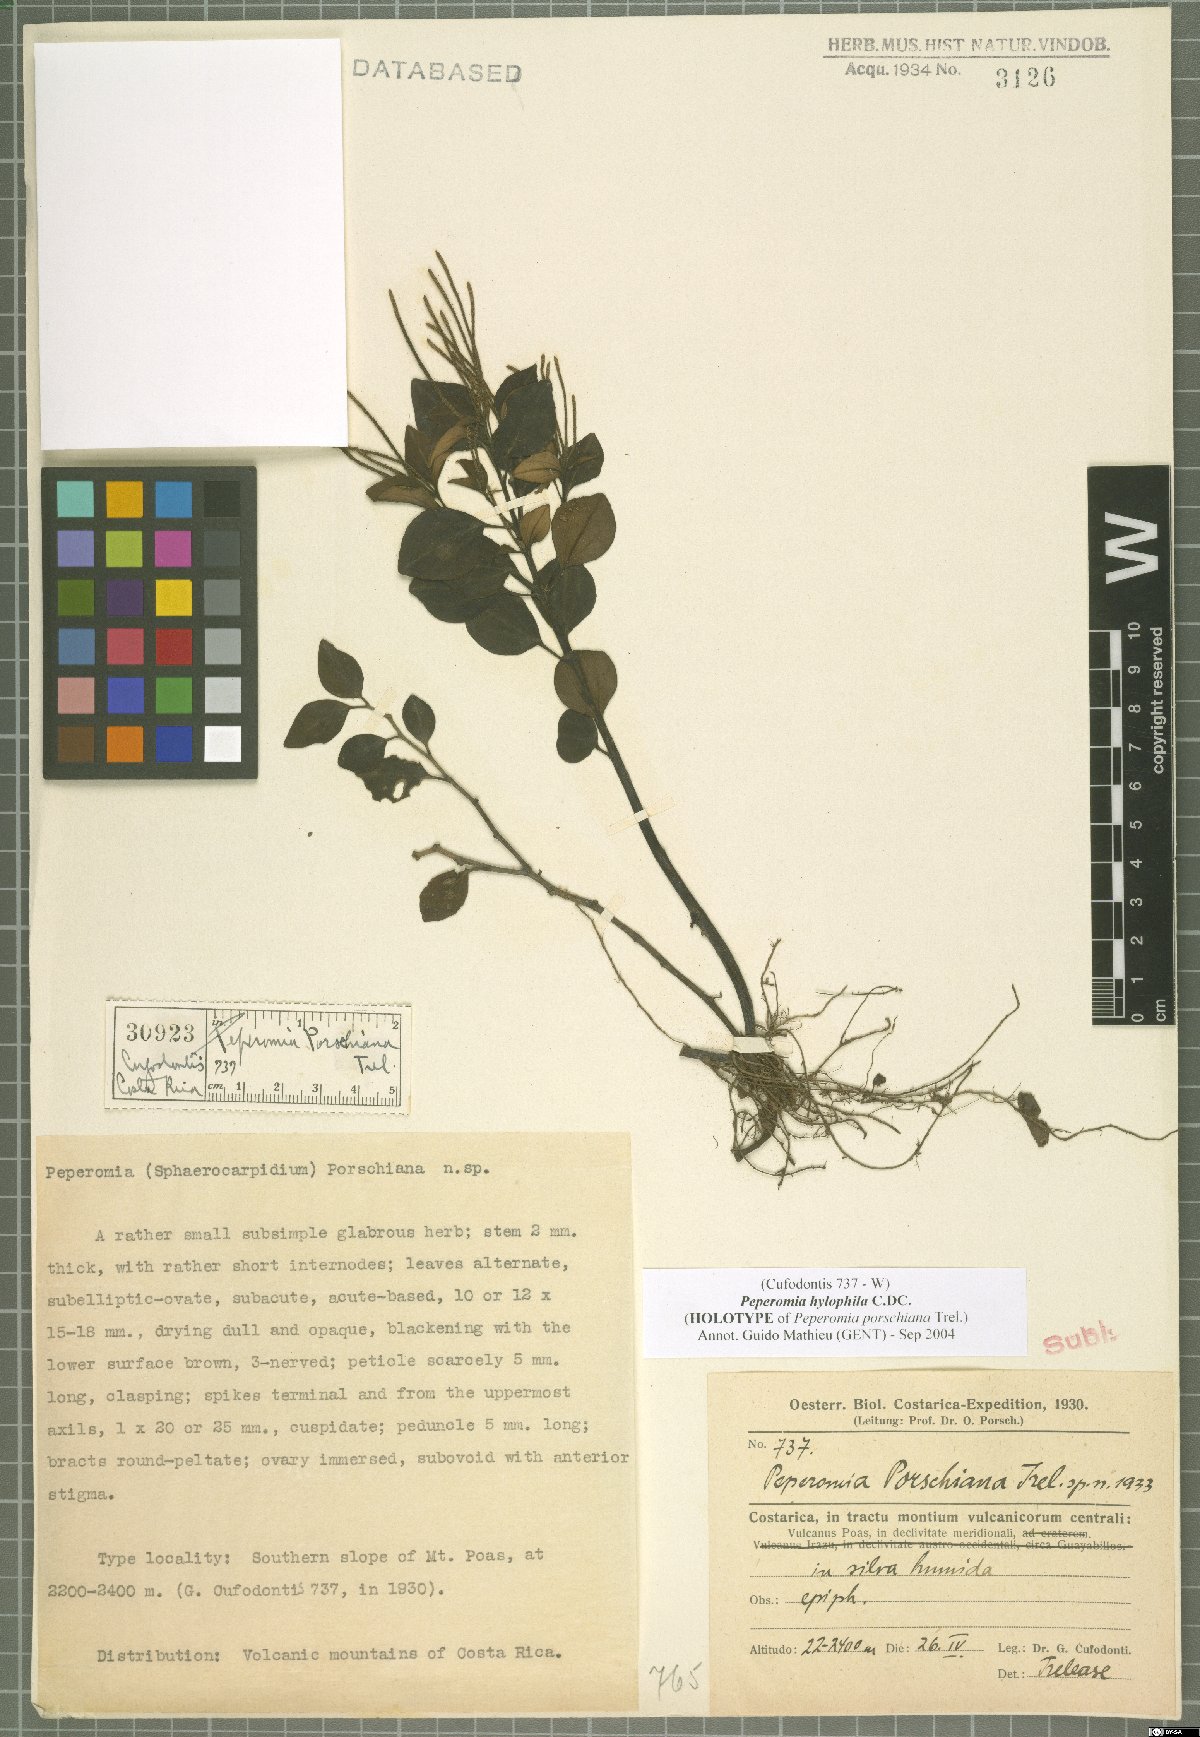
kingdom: Plantae
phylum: Tracheophyta
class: Magnoliopsida
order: Piperales
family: Piperaceae
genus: Peperomia
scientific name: Peperomia hylophila
